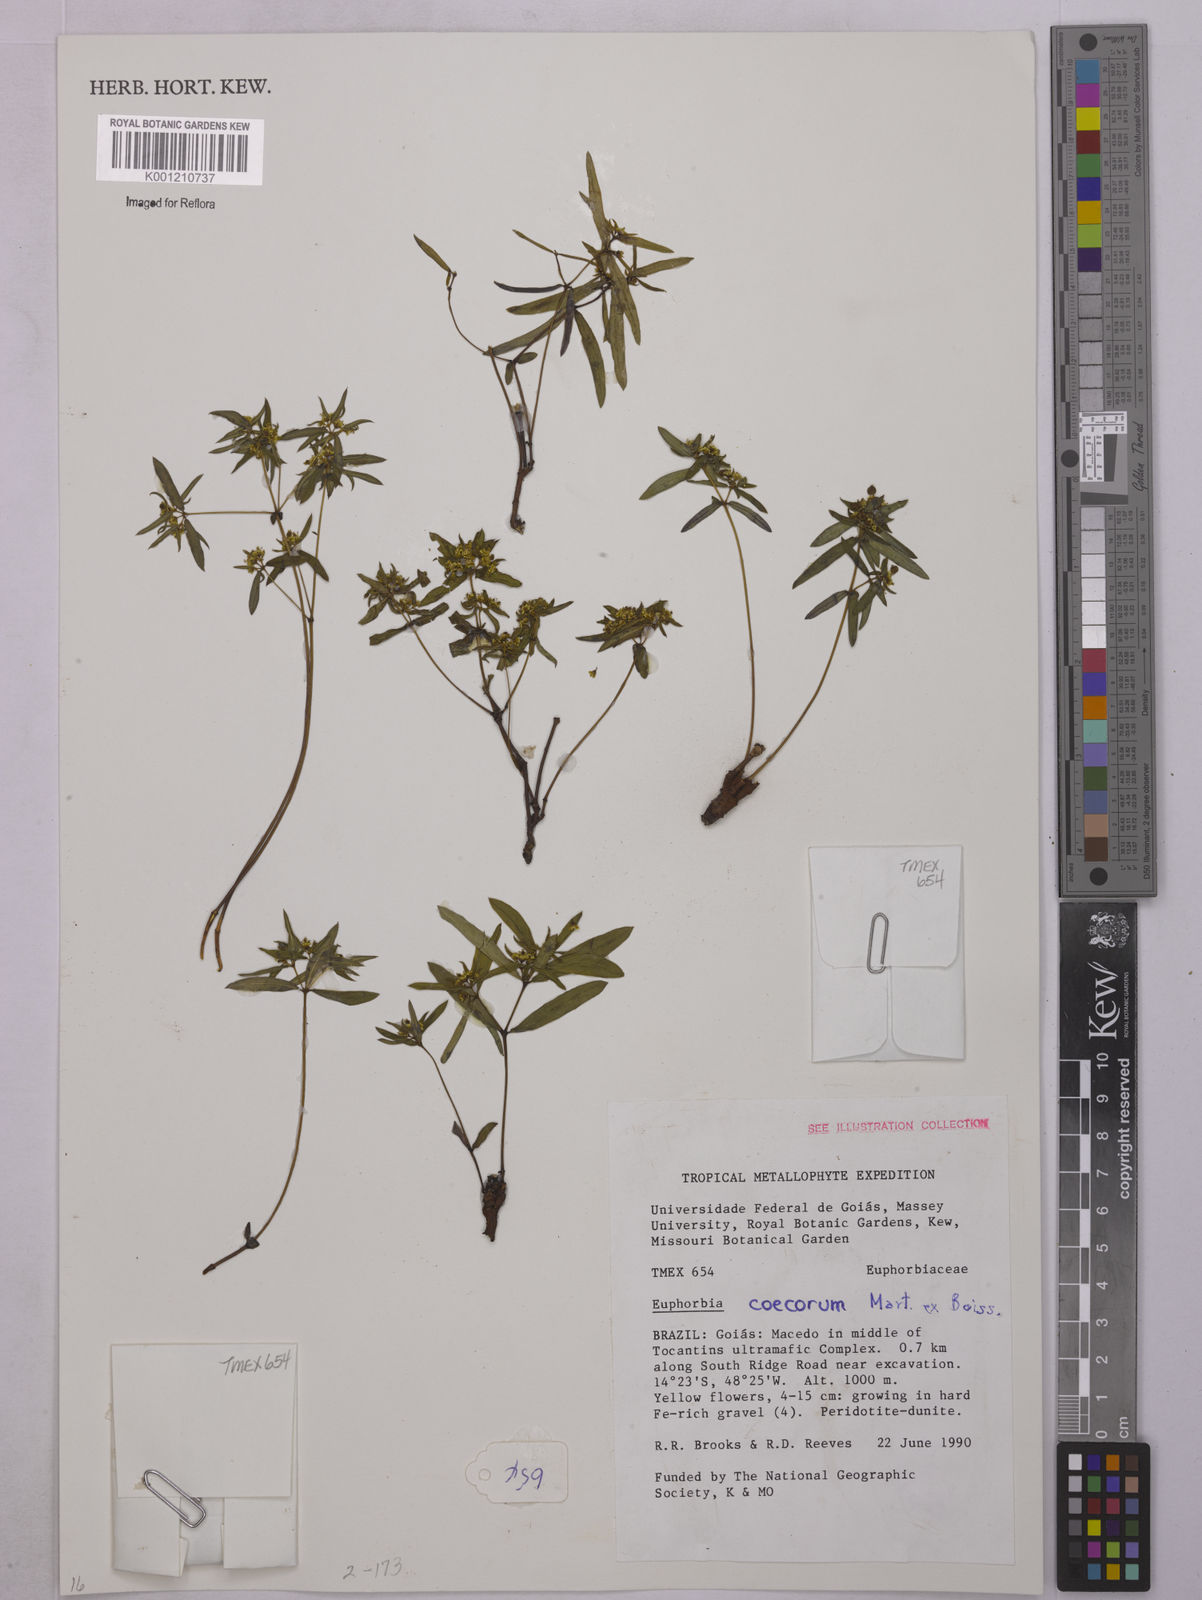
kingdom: Plantae
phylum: Tracheophyta
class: Magnoliopsida
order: Malpighiales
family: Euphorbiaceae
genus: Euphorbia
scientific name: Euphorbia potentilloides
